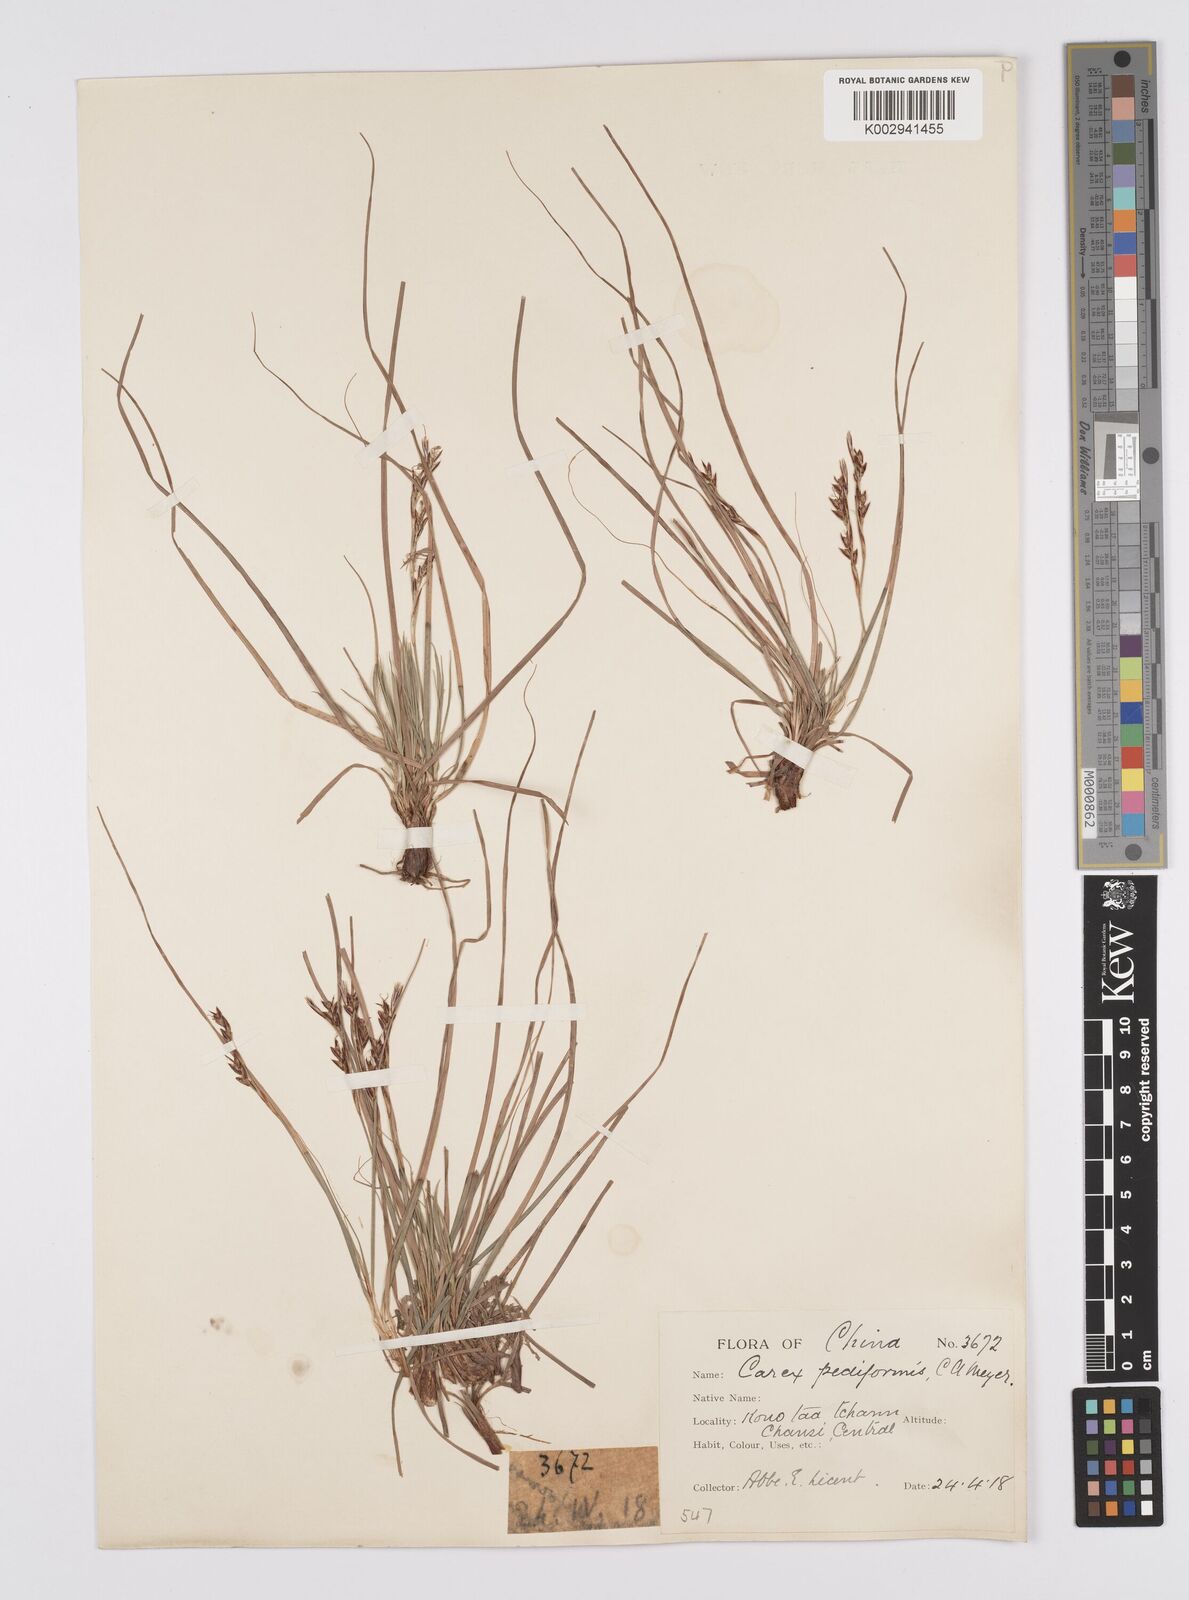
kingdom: Plantae
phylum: Tracheophyta
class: Liliopsida
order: Poales
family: Cyperaceae
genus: Carex
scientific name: Carex lanceolata
